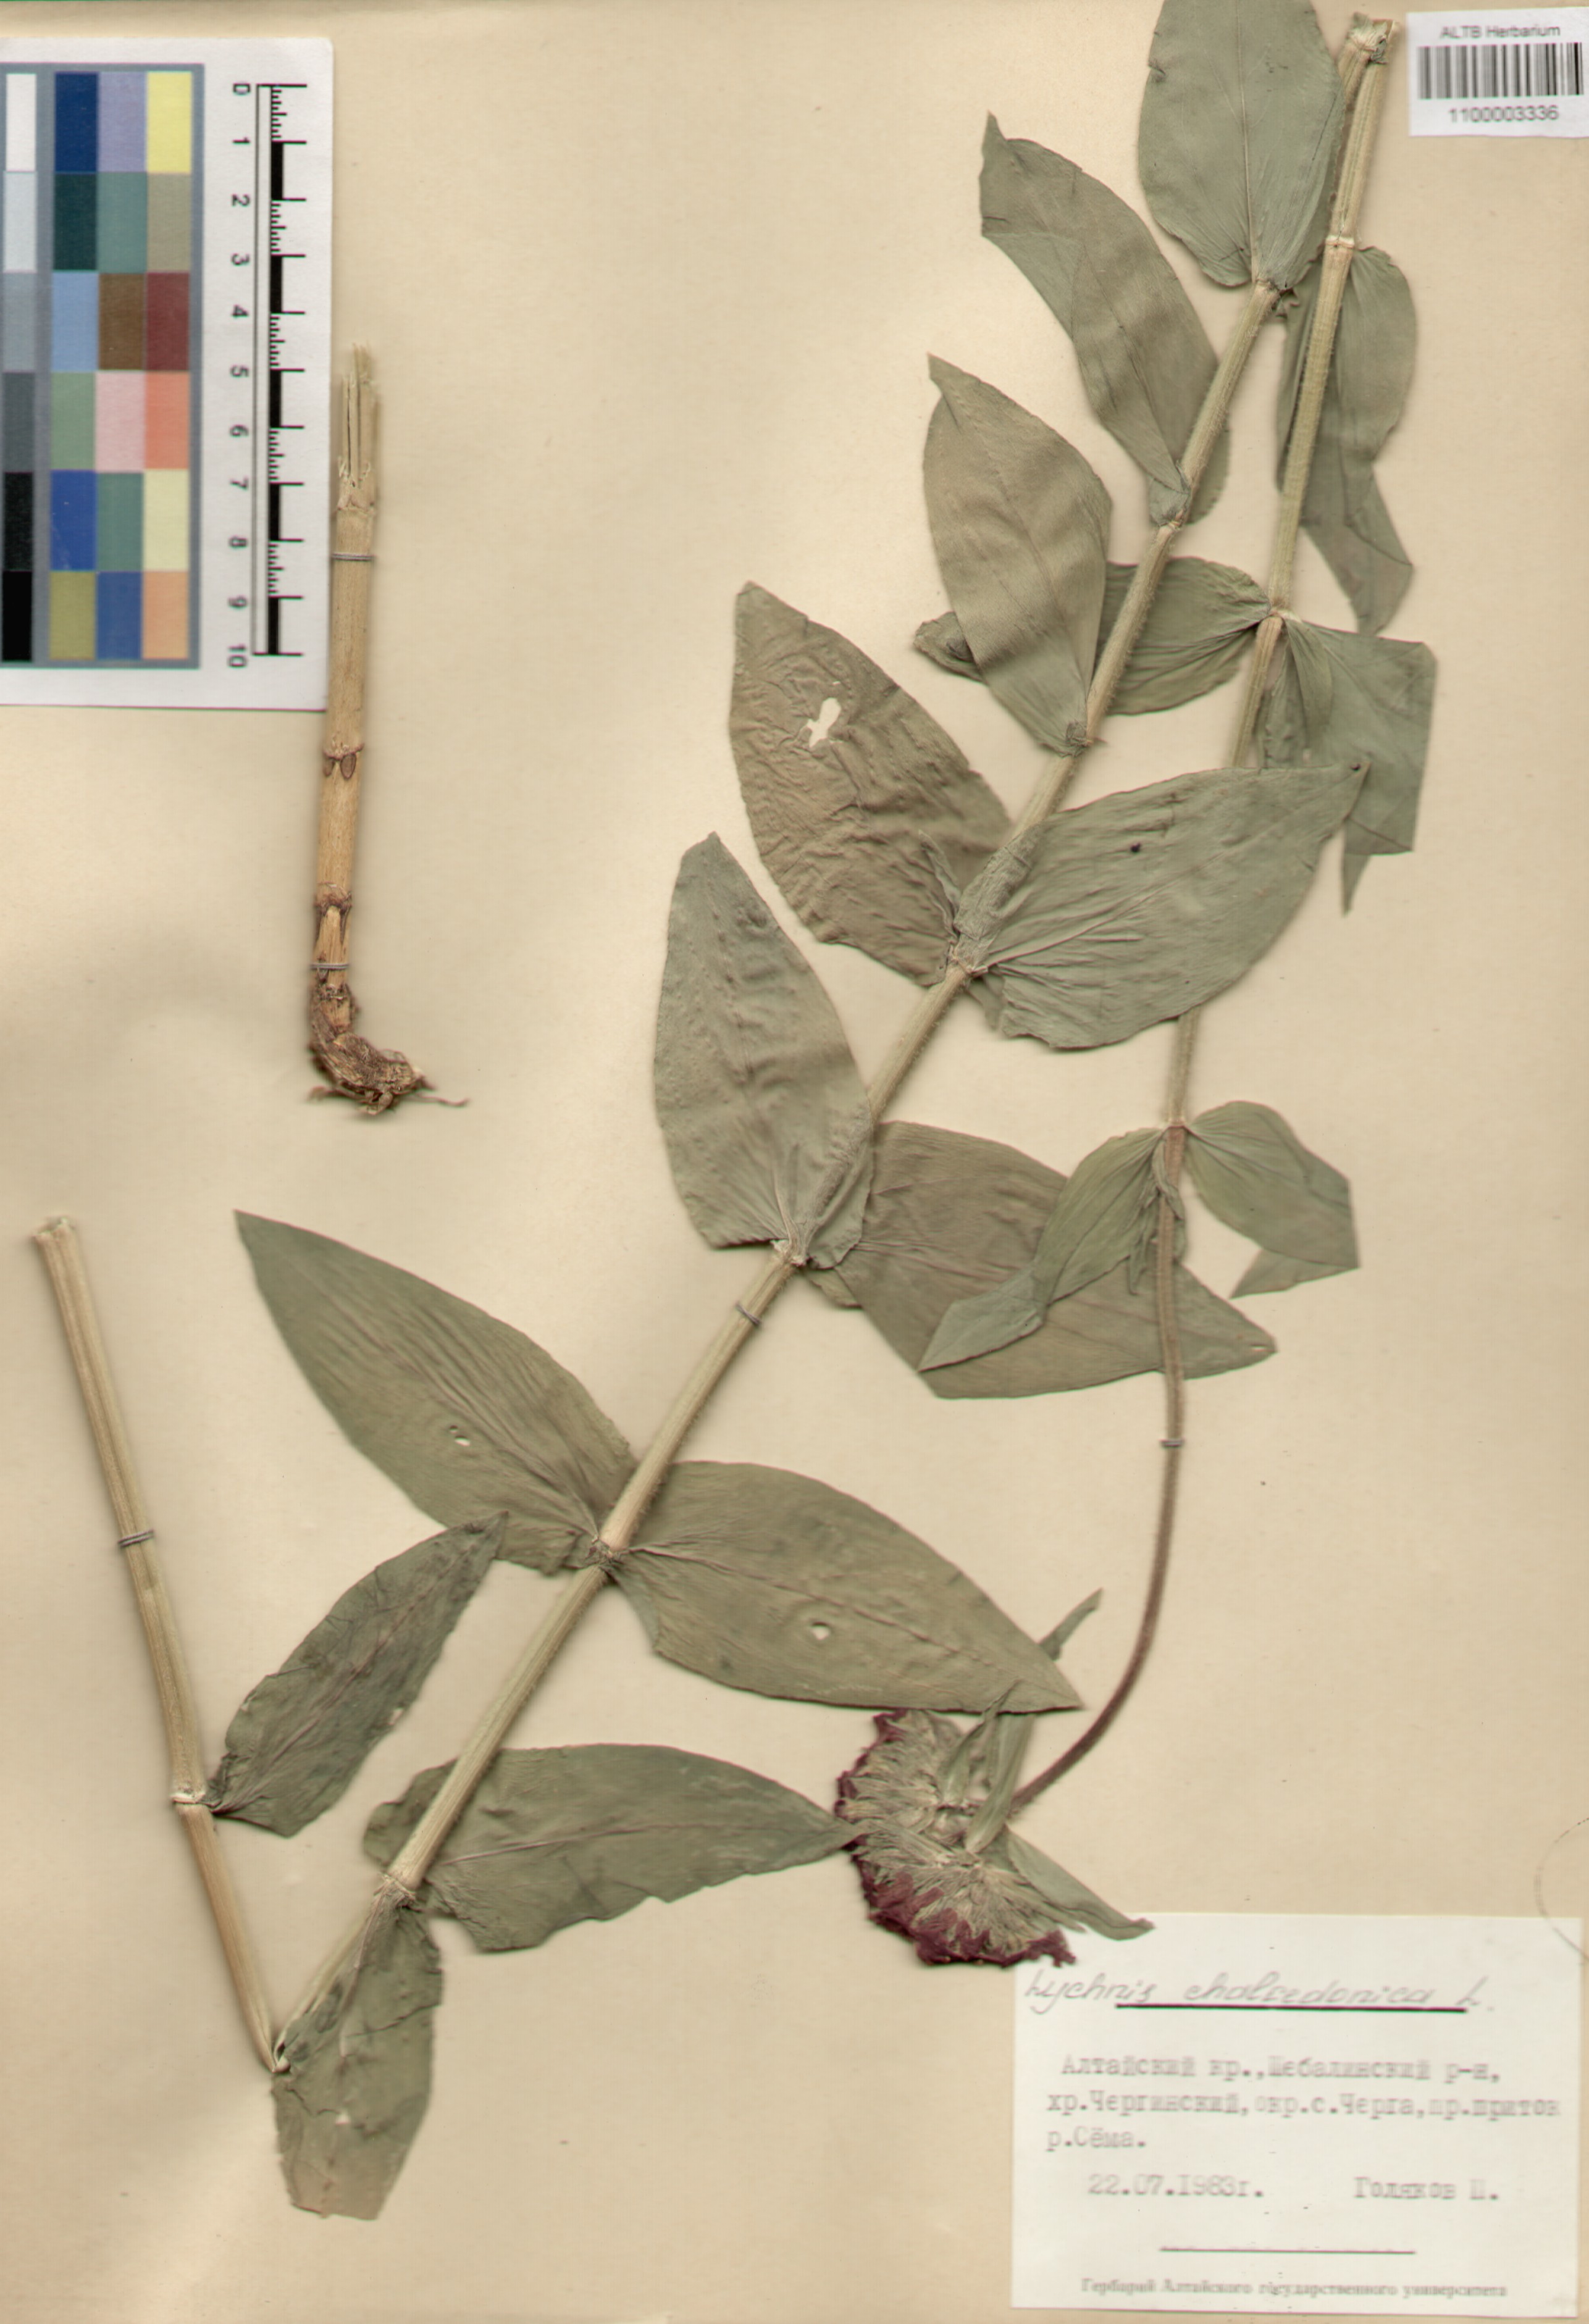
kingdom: Plantae
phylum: Tracheophyta
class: Magnoliopsida
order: Caryophyllales
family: Caryophyllaceae
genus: Silene
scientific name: Silene chalcedonica
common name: Maltese-cross
